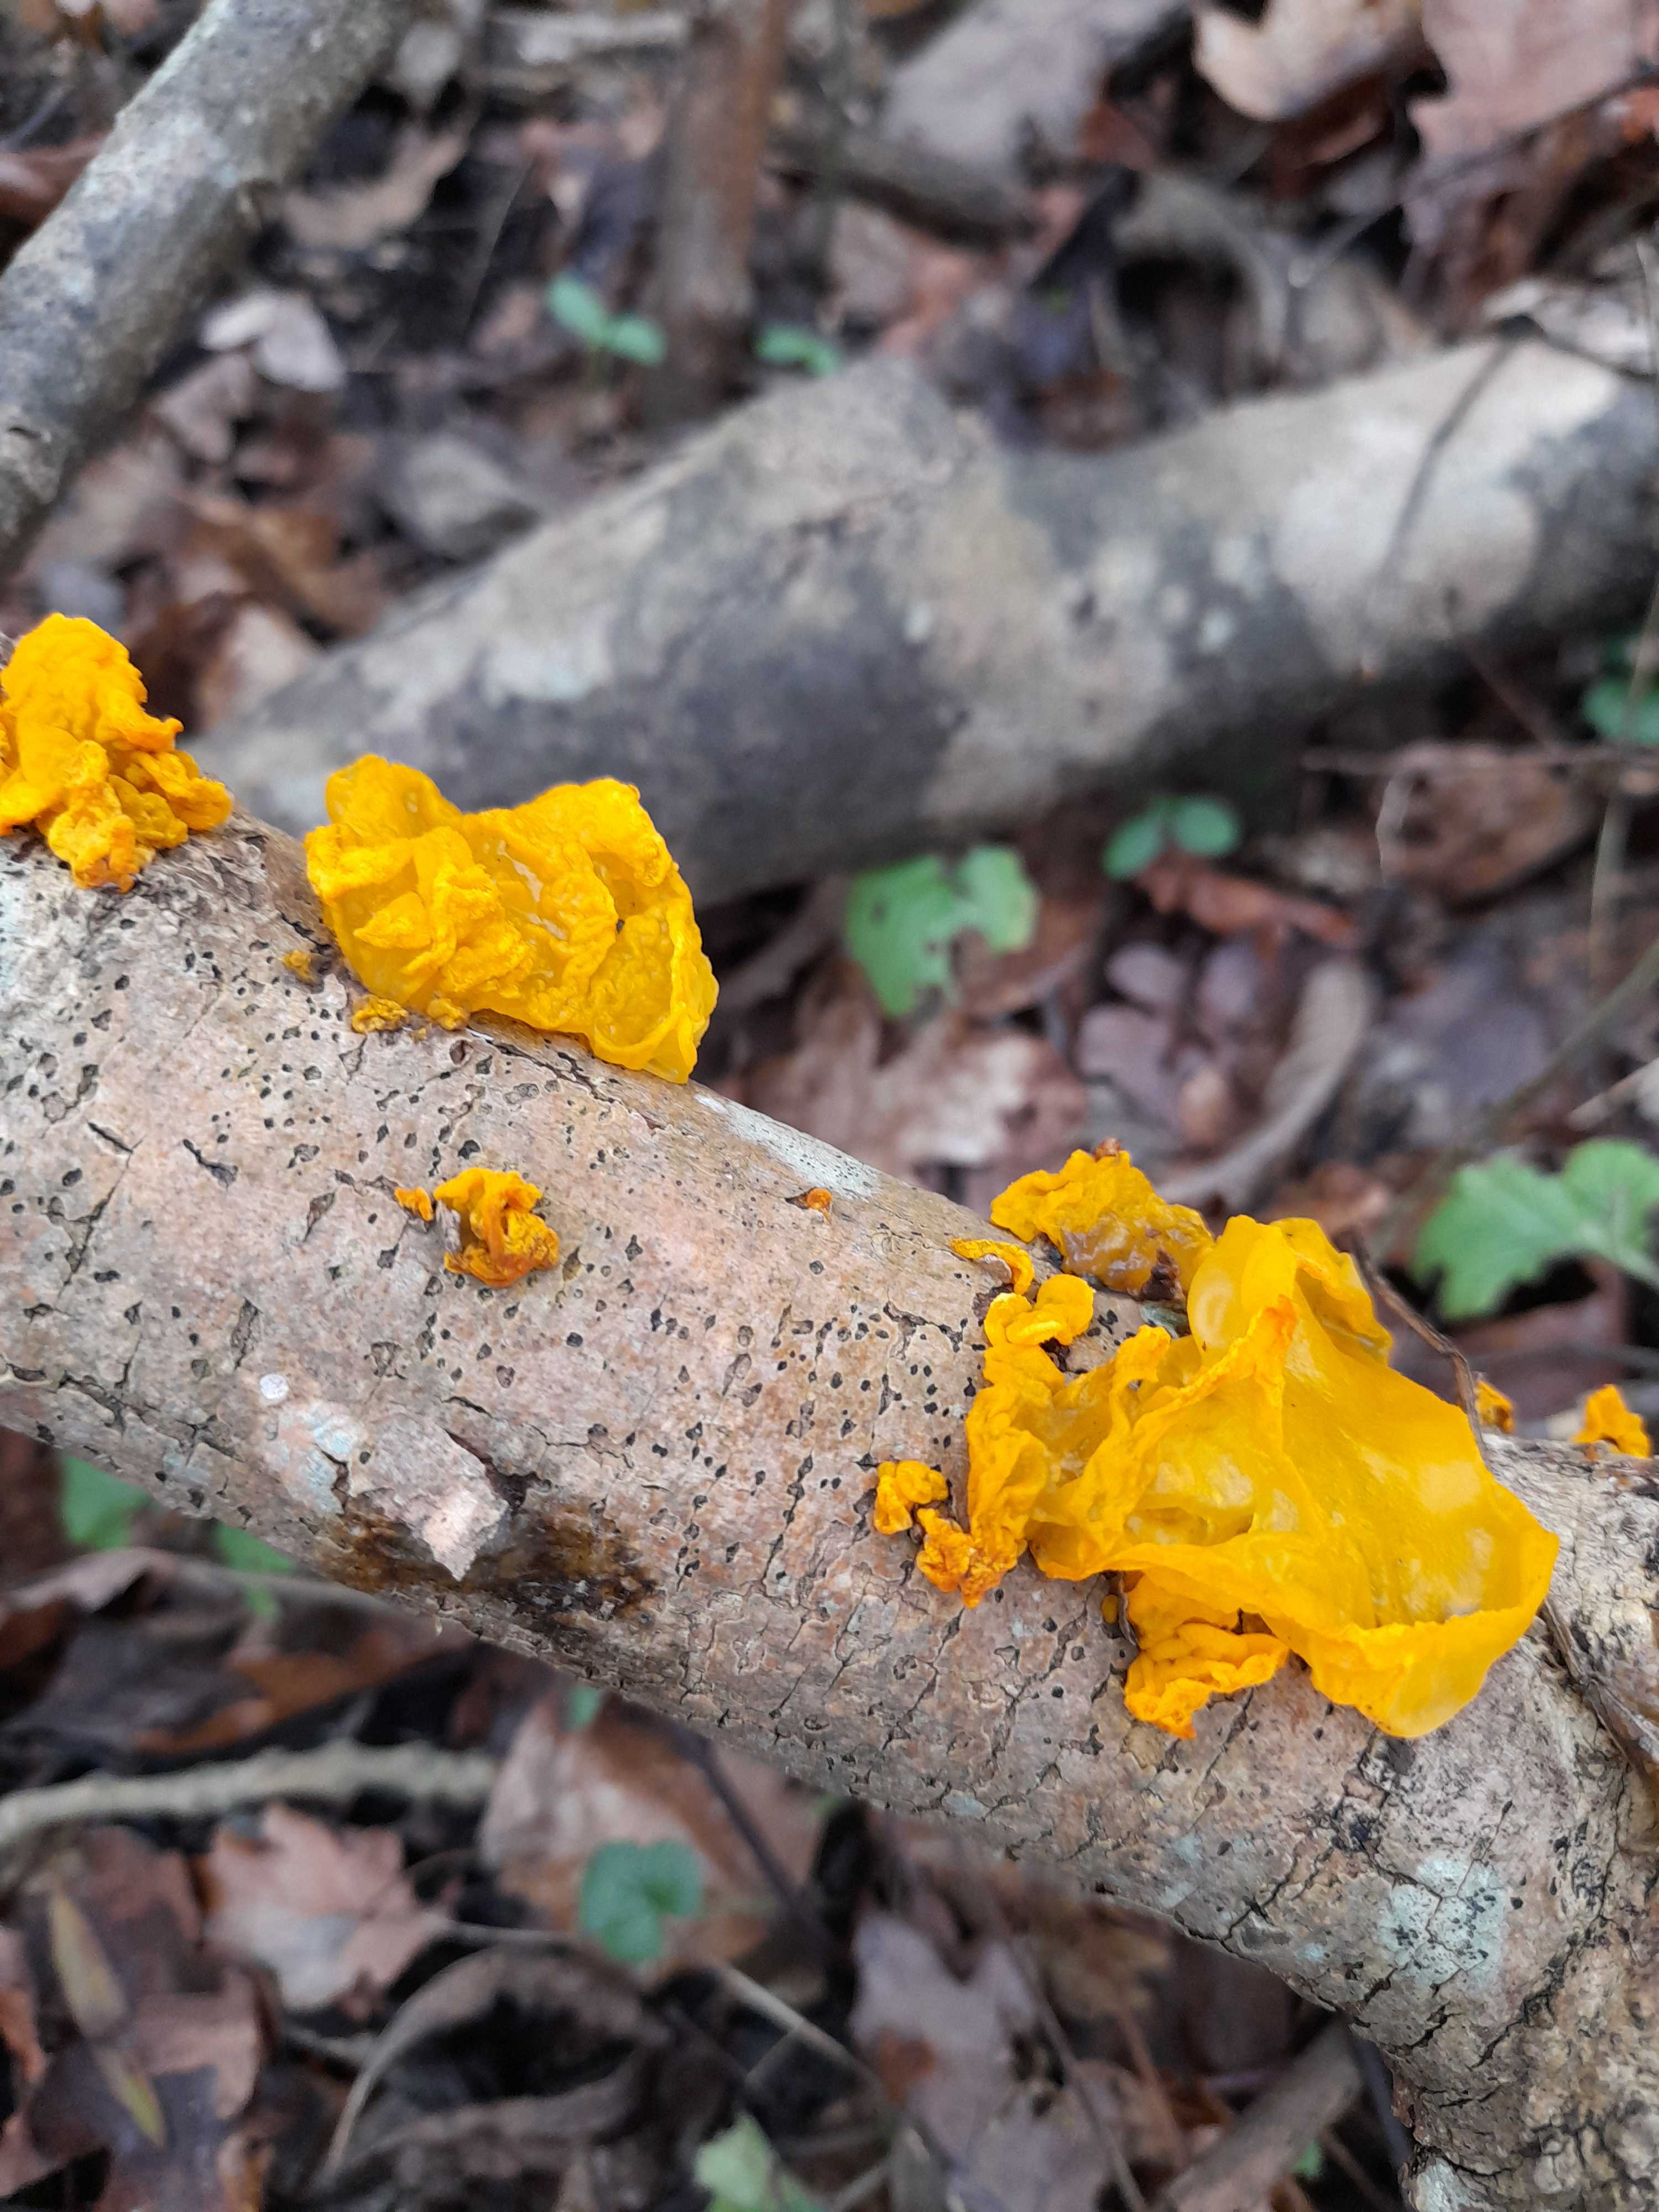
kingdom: Fungi
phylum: Basidiomycota
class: Tremellomycetes
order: Tremellales
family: Tremellaceae
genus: Tremella
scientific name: Tremella mesenterica
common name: gul bævresvamp
